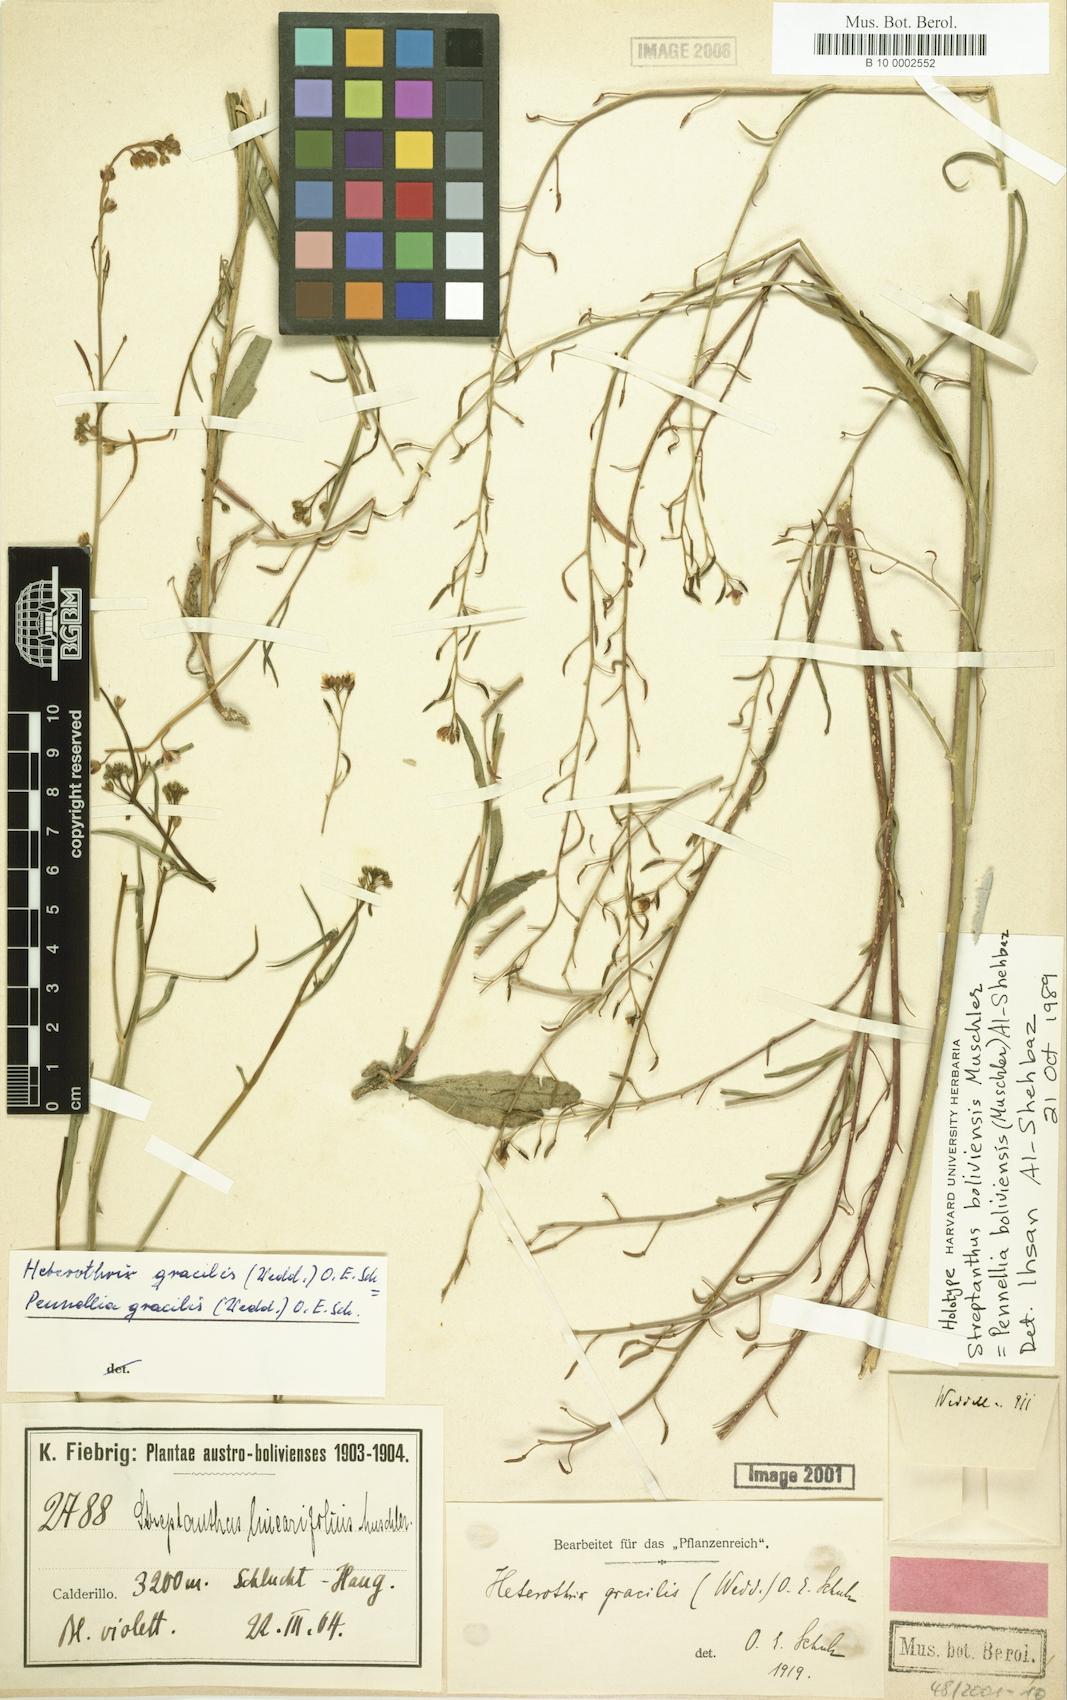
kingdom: Plantae
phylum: Tracheophyta
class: Magnoliopsida
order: Brassicales
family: Brassicaceae
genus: Pennellia
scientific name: Pennellia boliviensis
